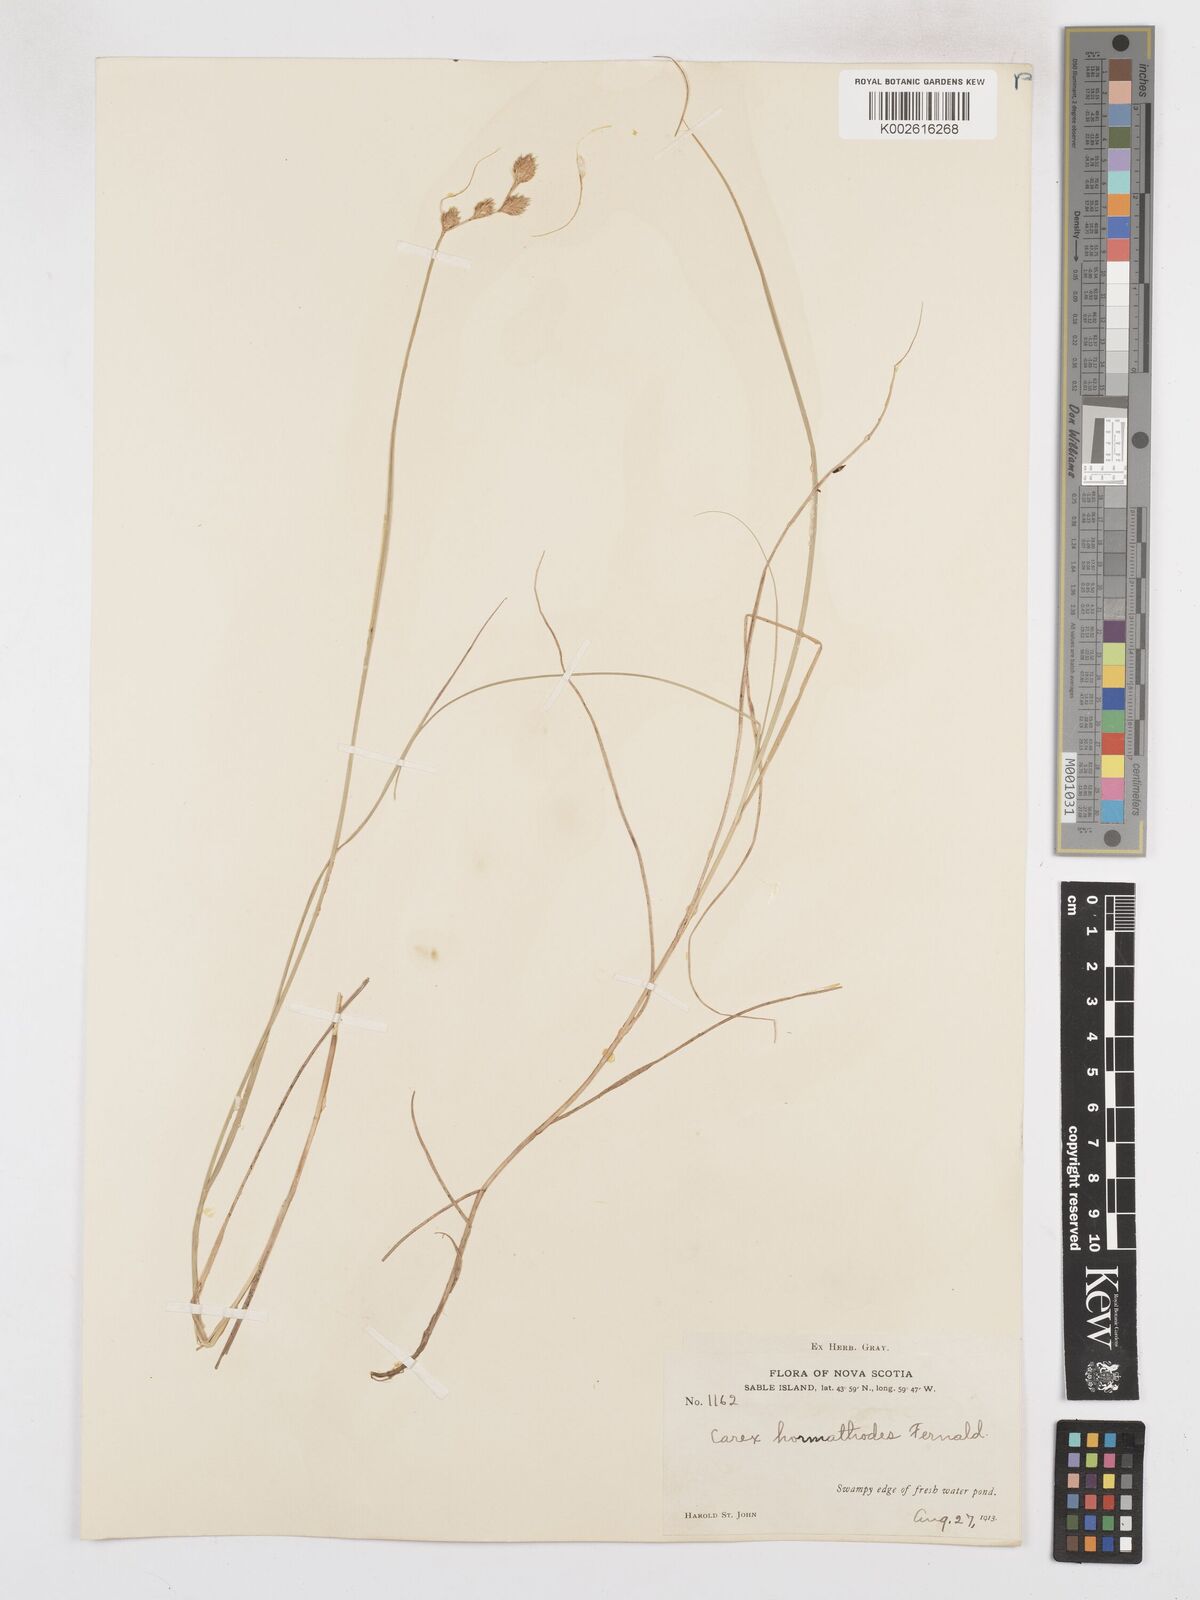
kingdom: Plantae
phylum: Tracheophyta
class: Liliopsida
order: Poales
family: Cyperaceae
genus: Carex
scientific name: Carex hormathodes
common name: Marsh straw sedge
